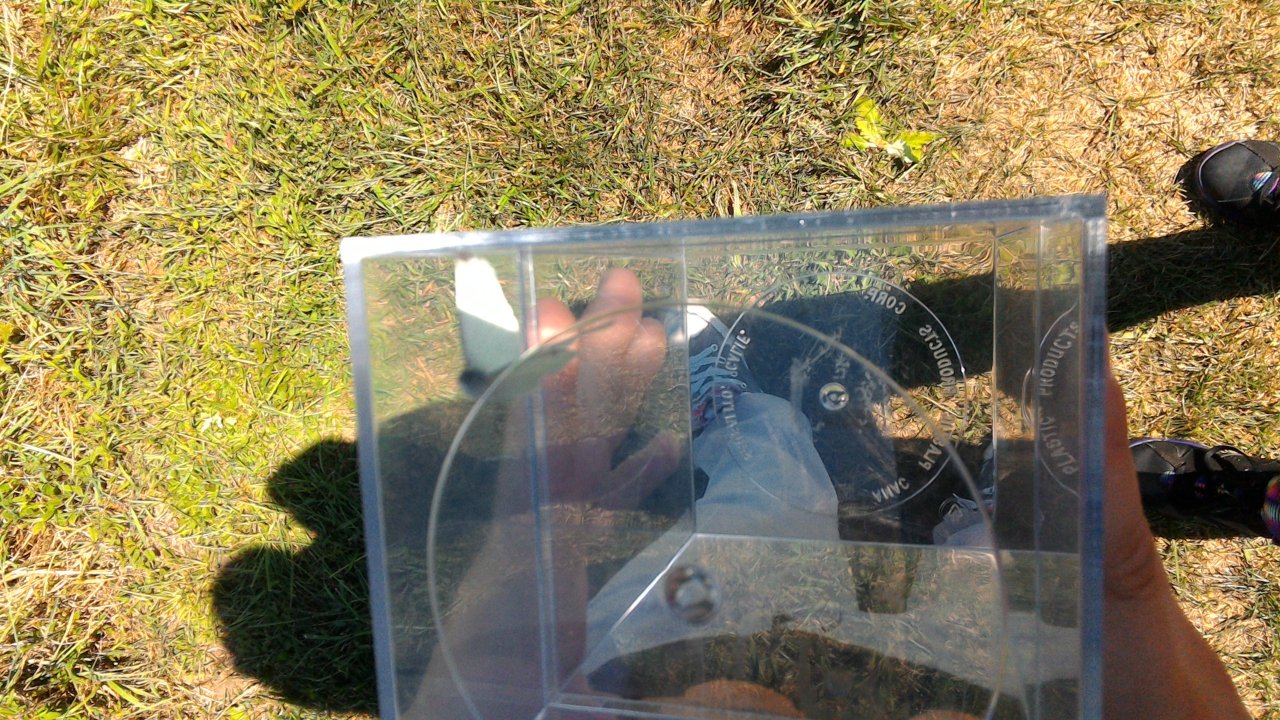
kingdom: Animalia
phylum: Arthropoda
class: Insecta
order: Lepidoptera
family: Pieridae
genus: Pieris
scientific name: Pieris rapae
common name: Cabbage White
